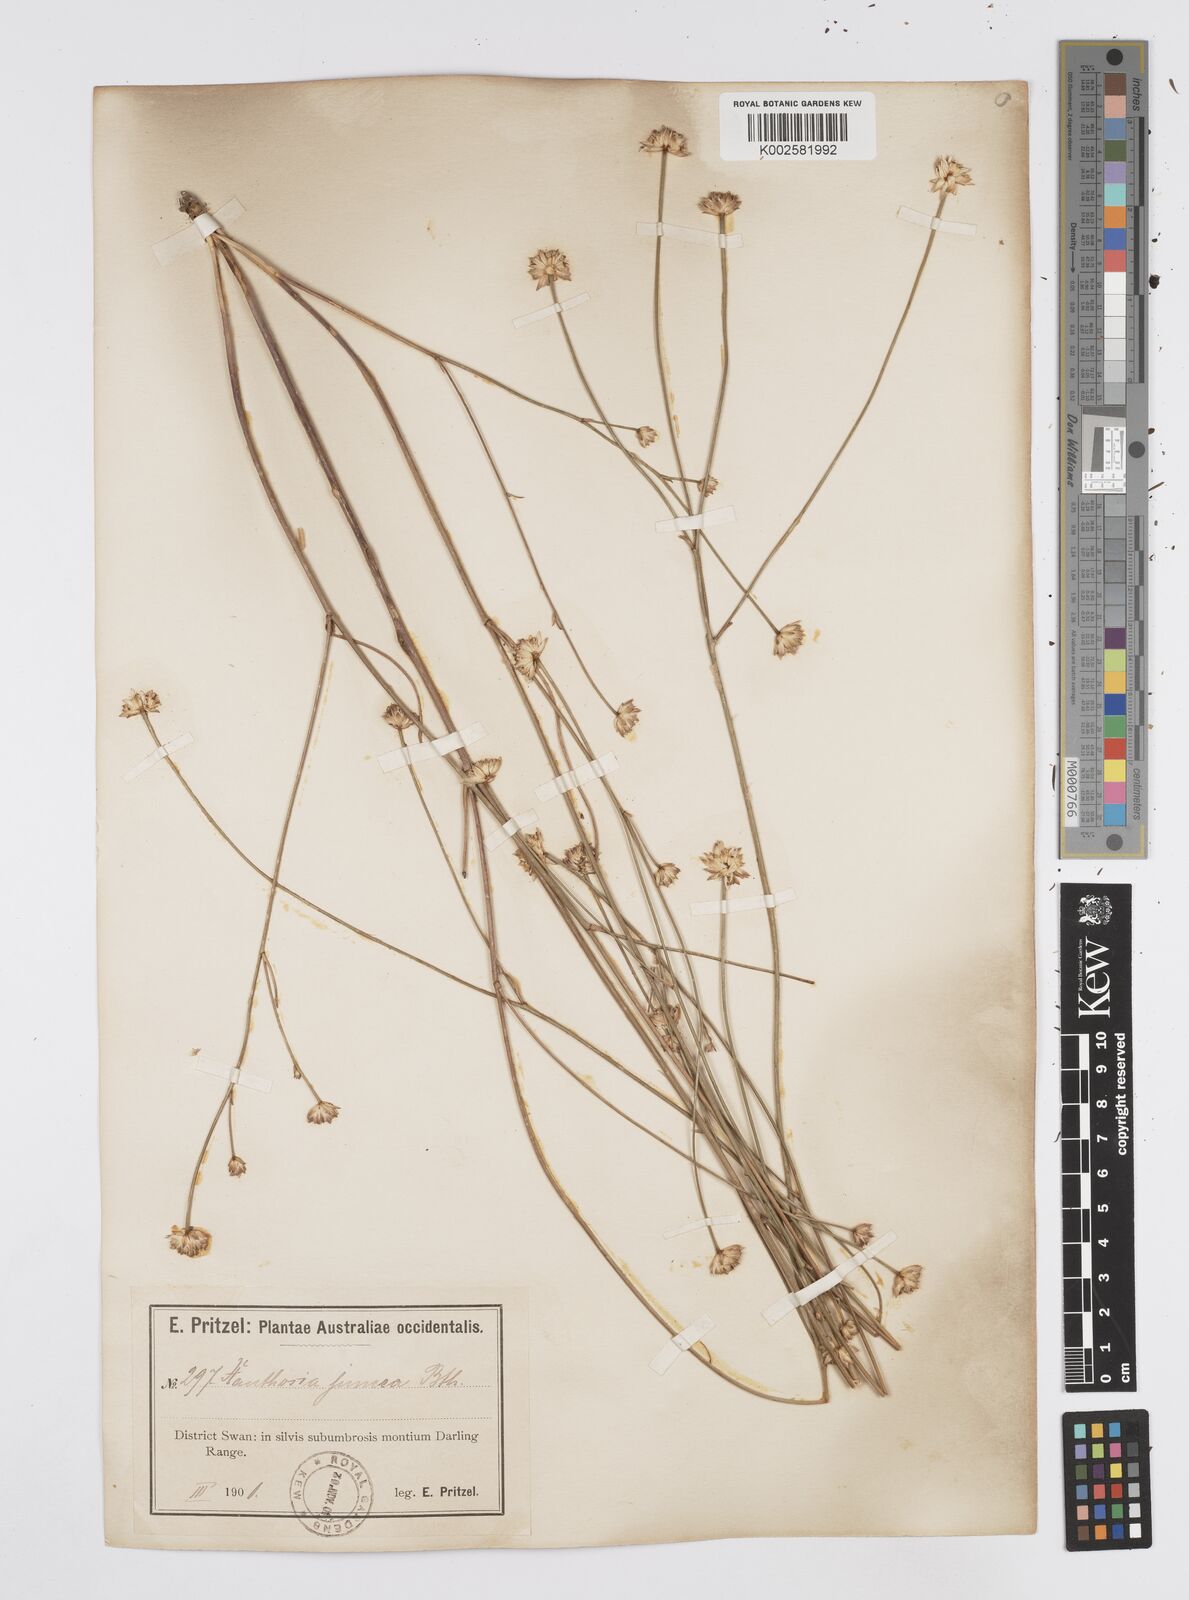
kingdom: Plantae
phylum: Tracheophyta
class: Magnoliopsida
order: Apiales
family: Apiaceae
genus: Schoenolaena
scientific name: Schoenolaena juncea
